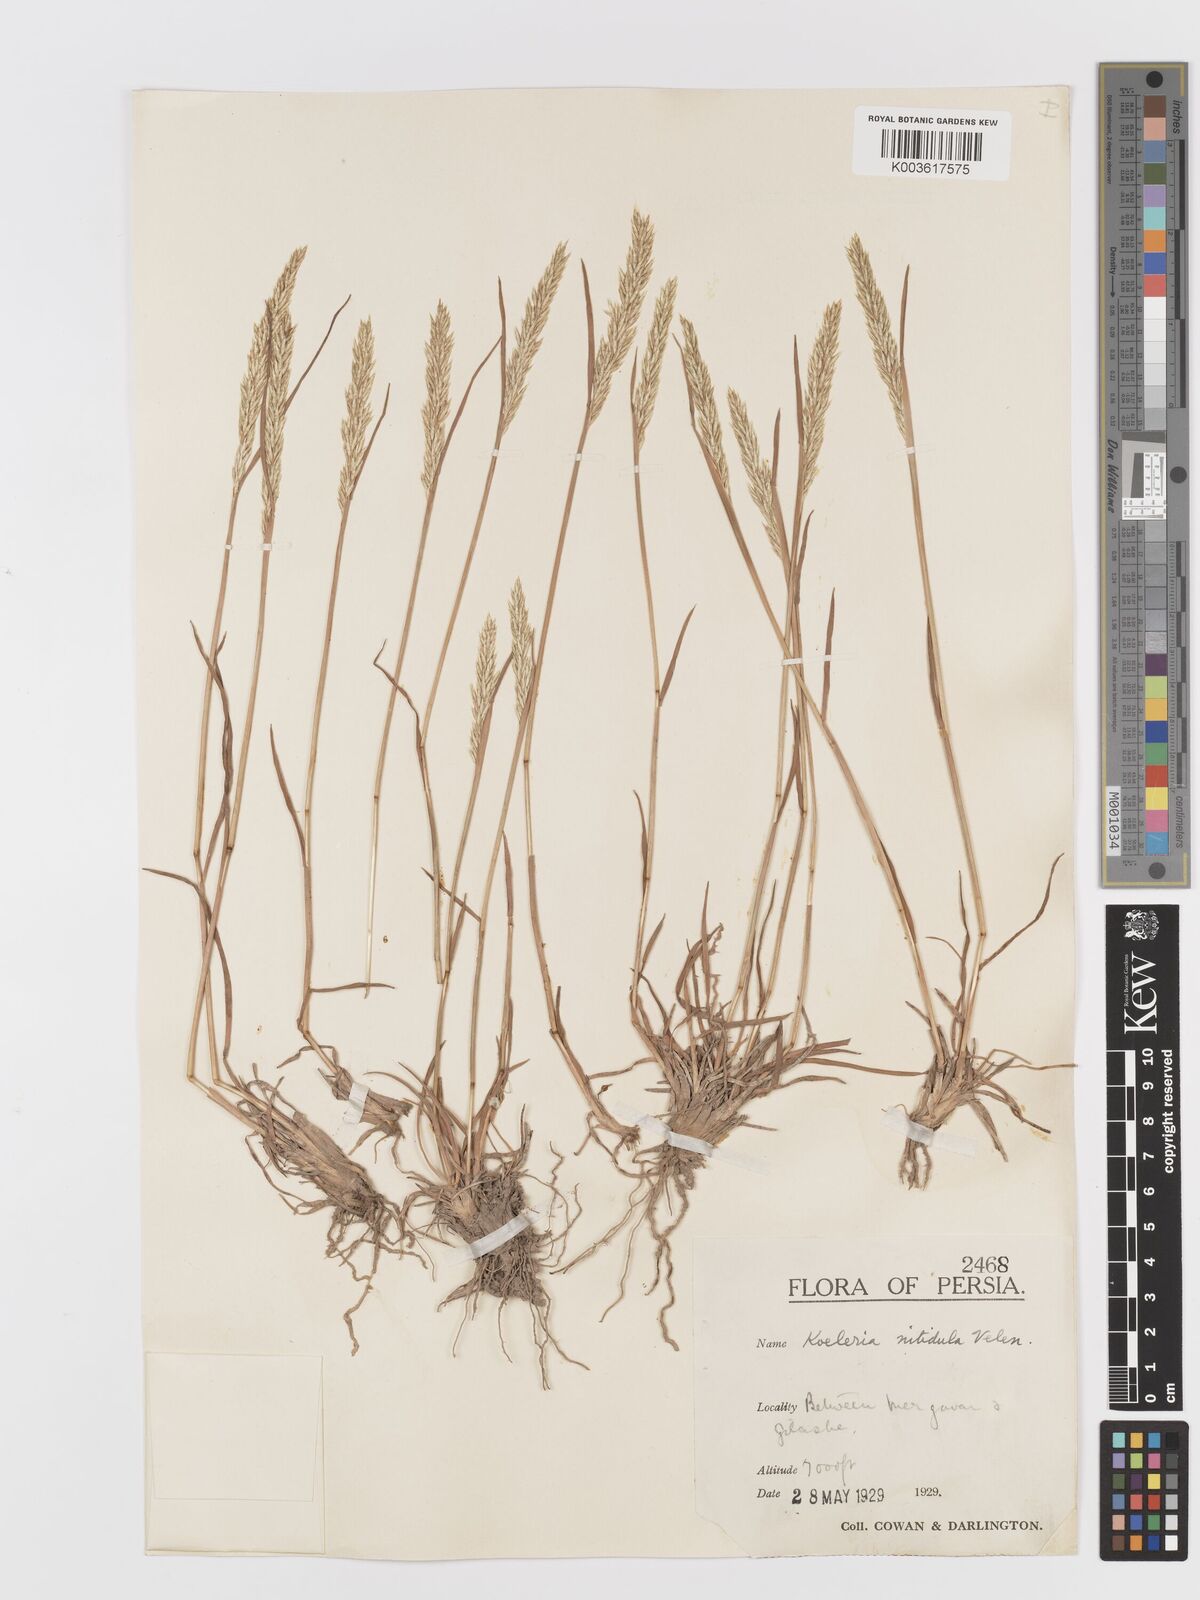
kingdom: Plantae
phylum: Tracheophyta
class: Liliopsida
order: Poales
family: Poaceae
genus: Koeleria
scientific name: Koeleria nitidula
